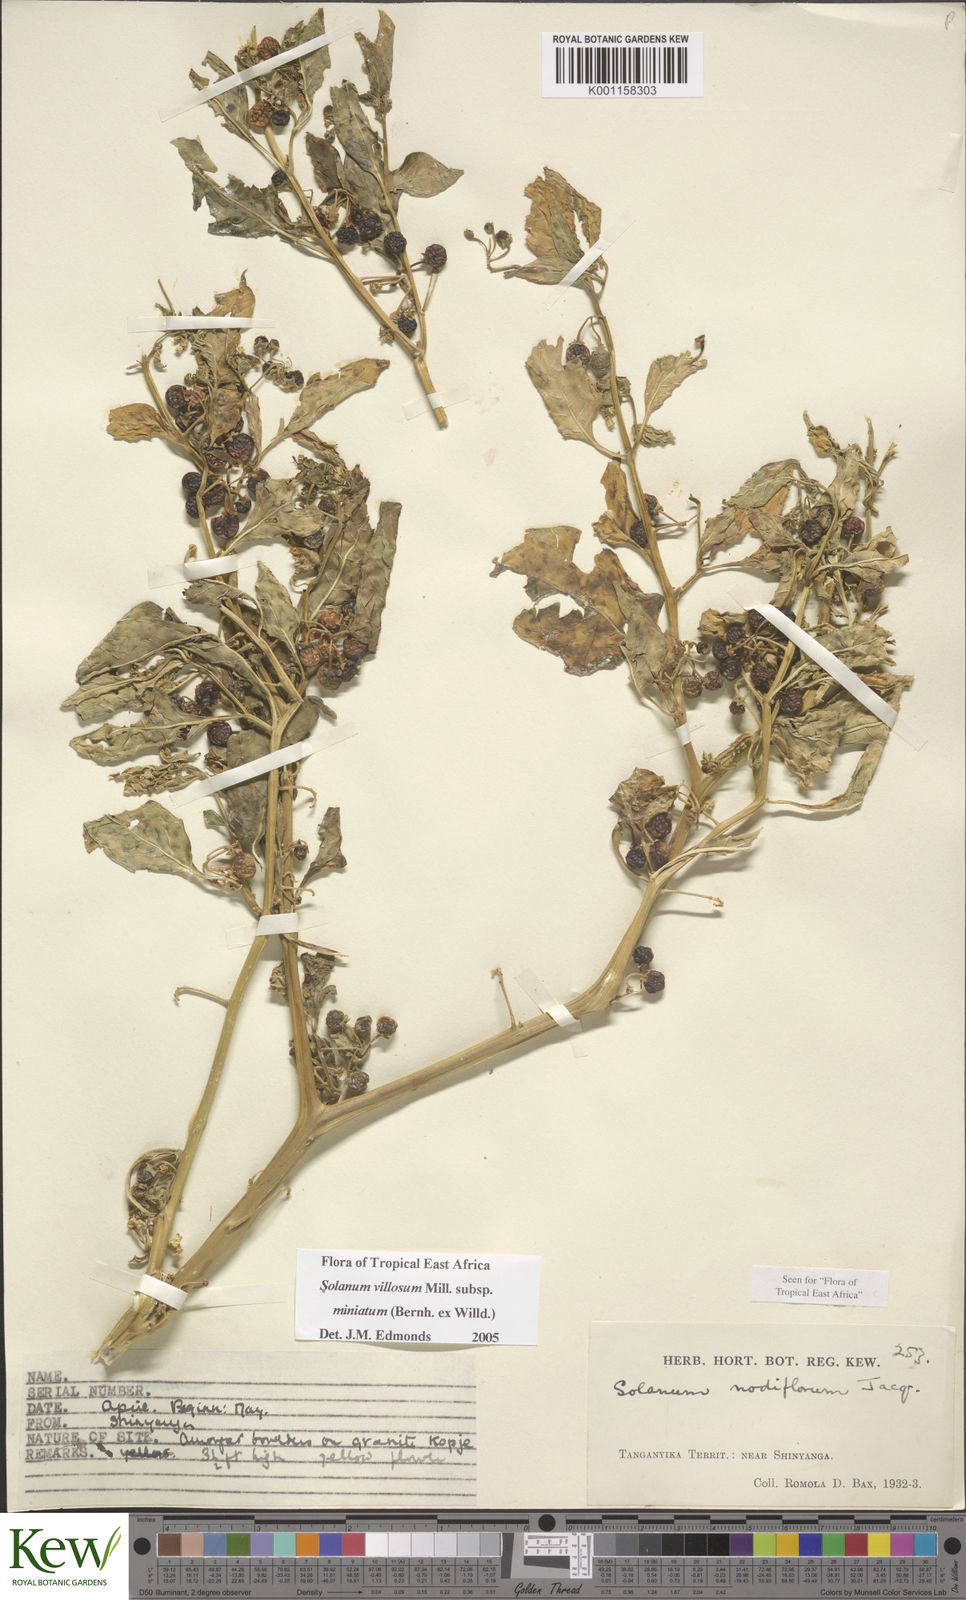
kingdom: Plantae
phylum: Tracheophyta
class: Magnoliopsida
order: Solanales
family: Solanaceae
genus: Solanum
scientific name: Solanum villosum
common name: Red nightshade
